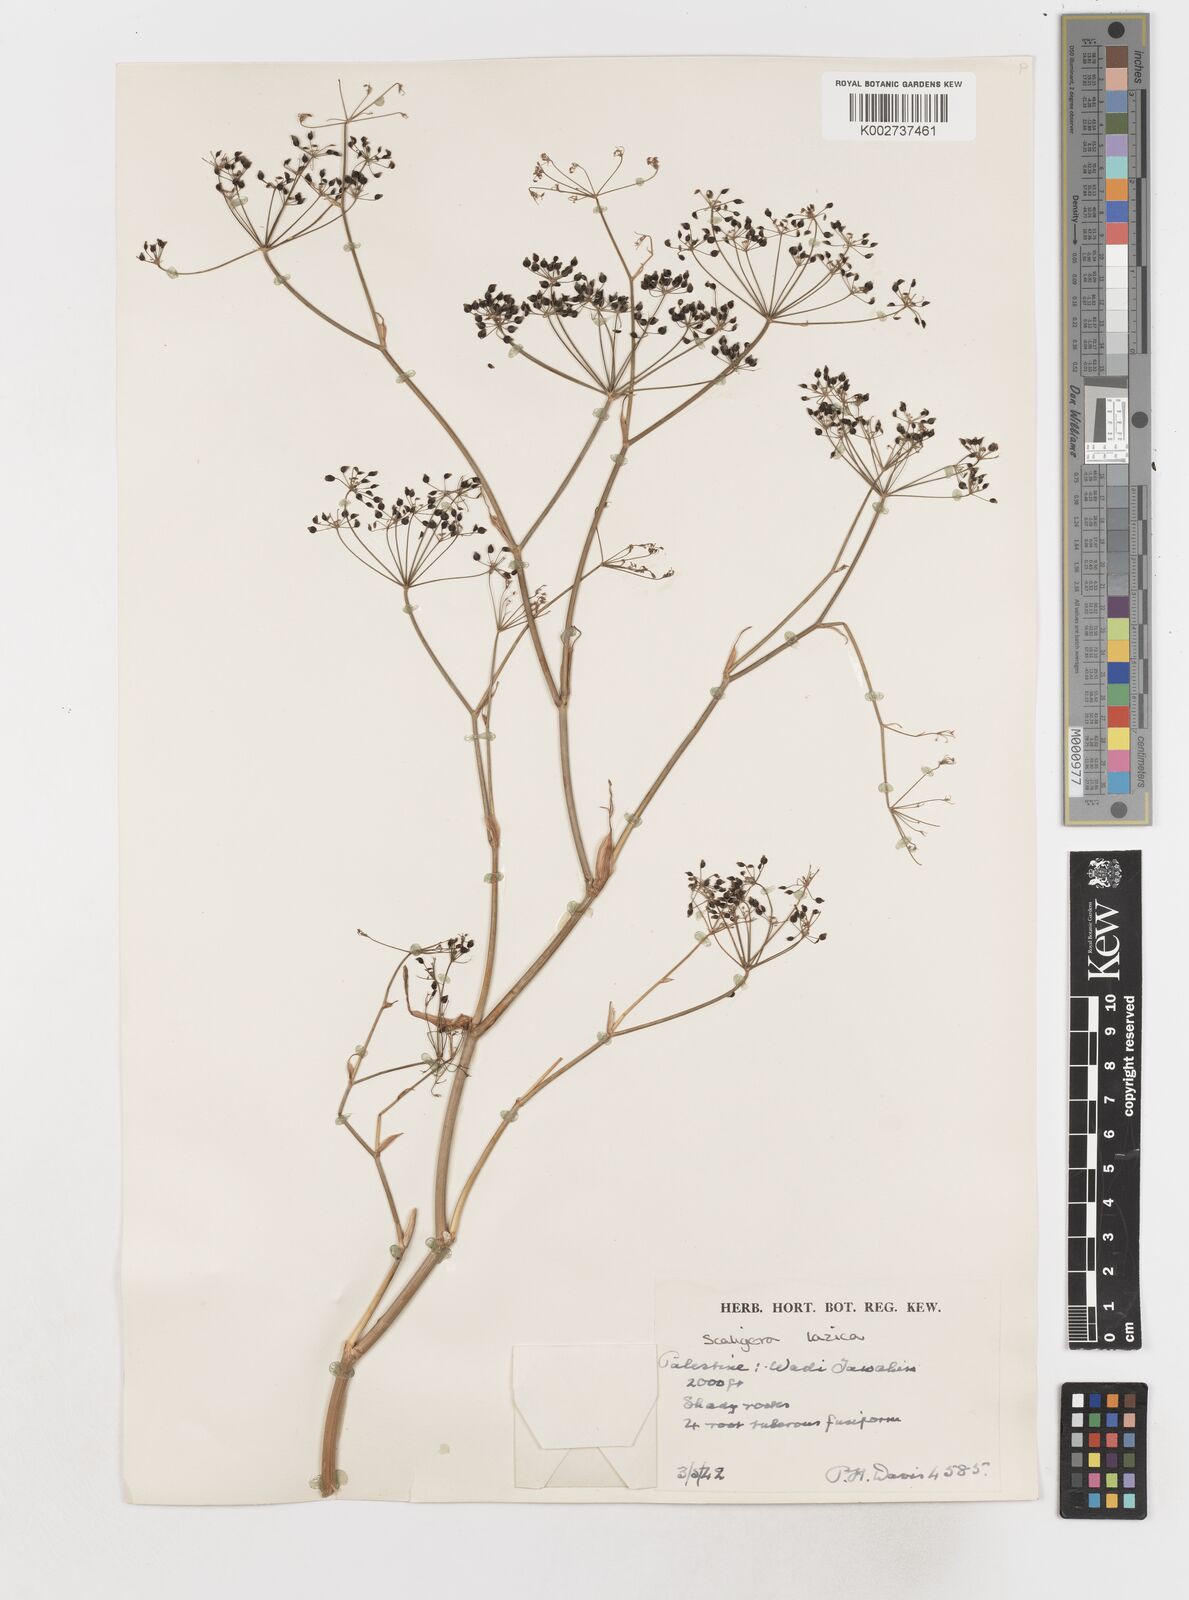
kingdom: Plantae
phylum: Tracheophyta
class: Magnoliopsida
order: Apiales
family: Apiaceae
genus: Scaligeria
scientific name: Scaligeria
